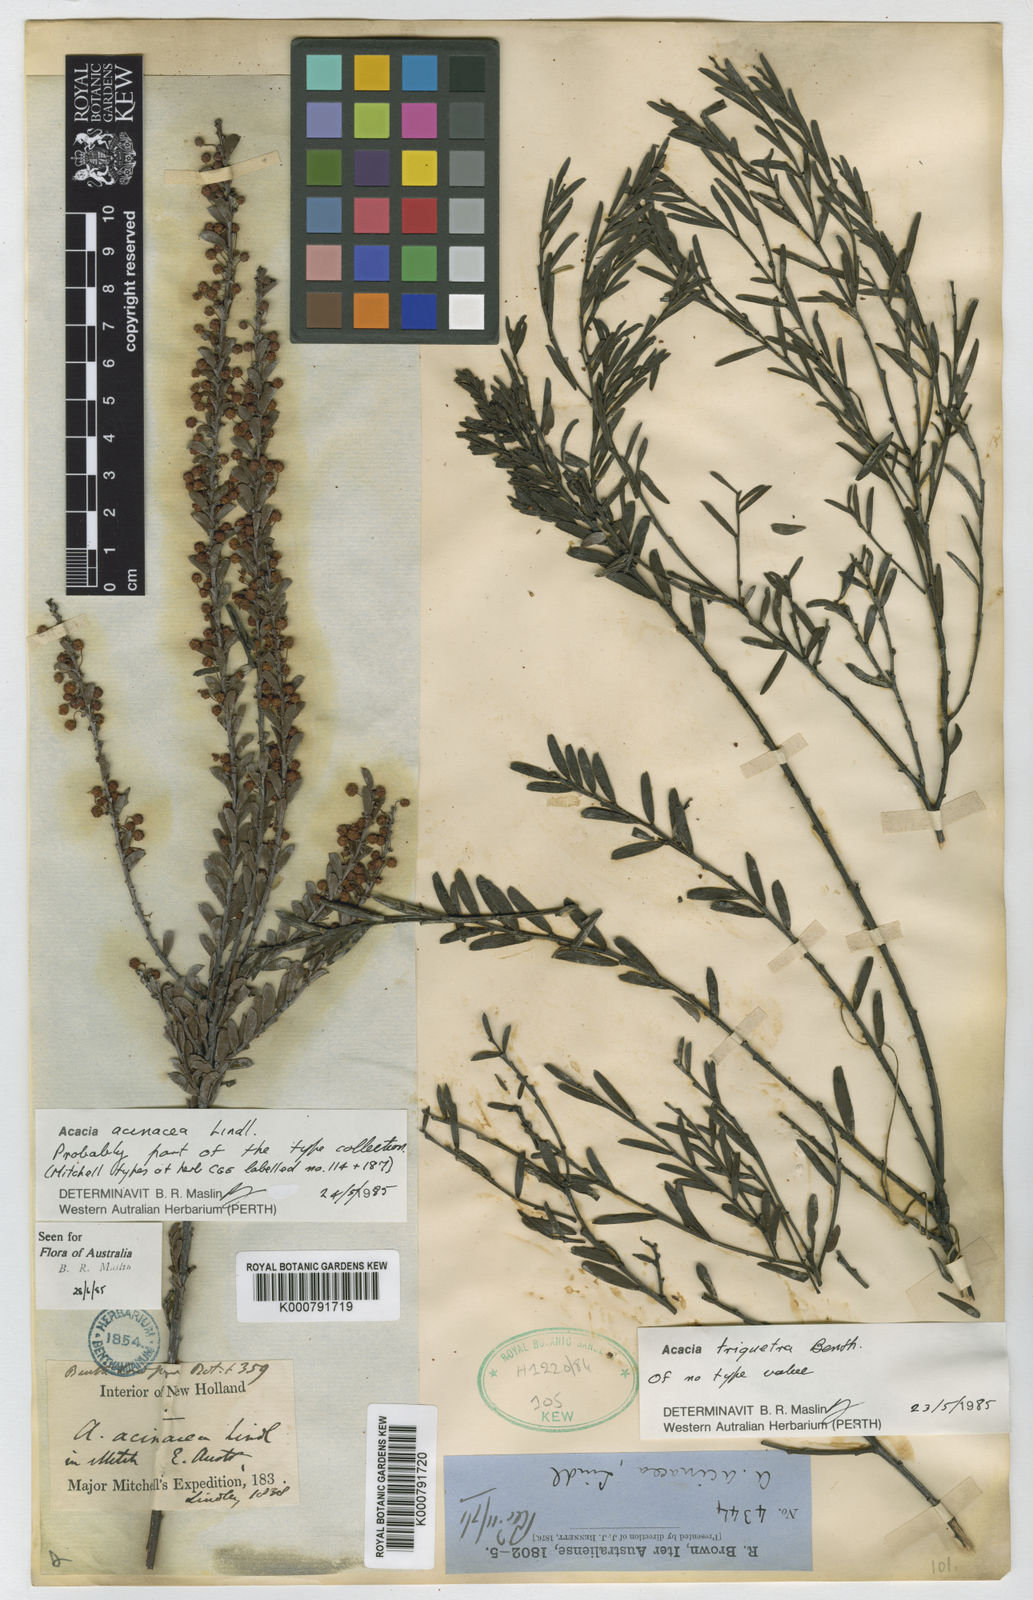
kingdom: Plantae
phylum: Tracheophyta
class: Magnoliopsida
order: Fabales
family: Fabaceae
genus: Acacia
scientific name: Acacia acinacea
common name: Gold-dust acacia
